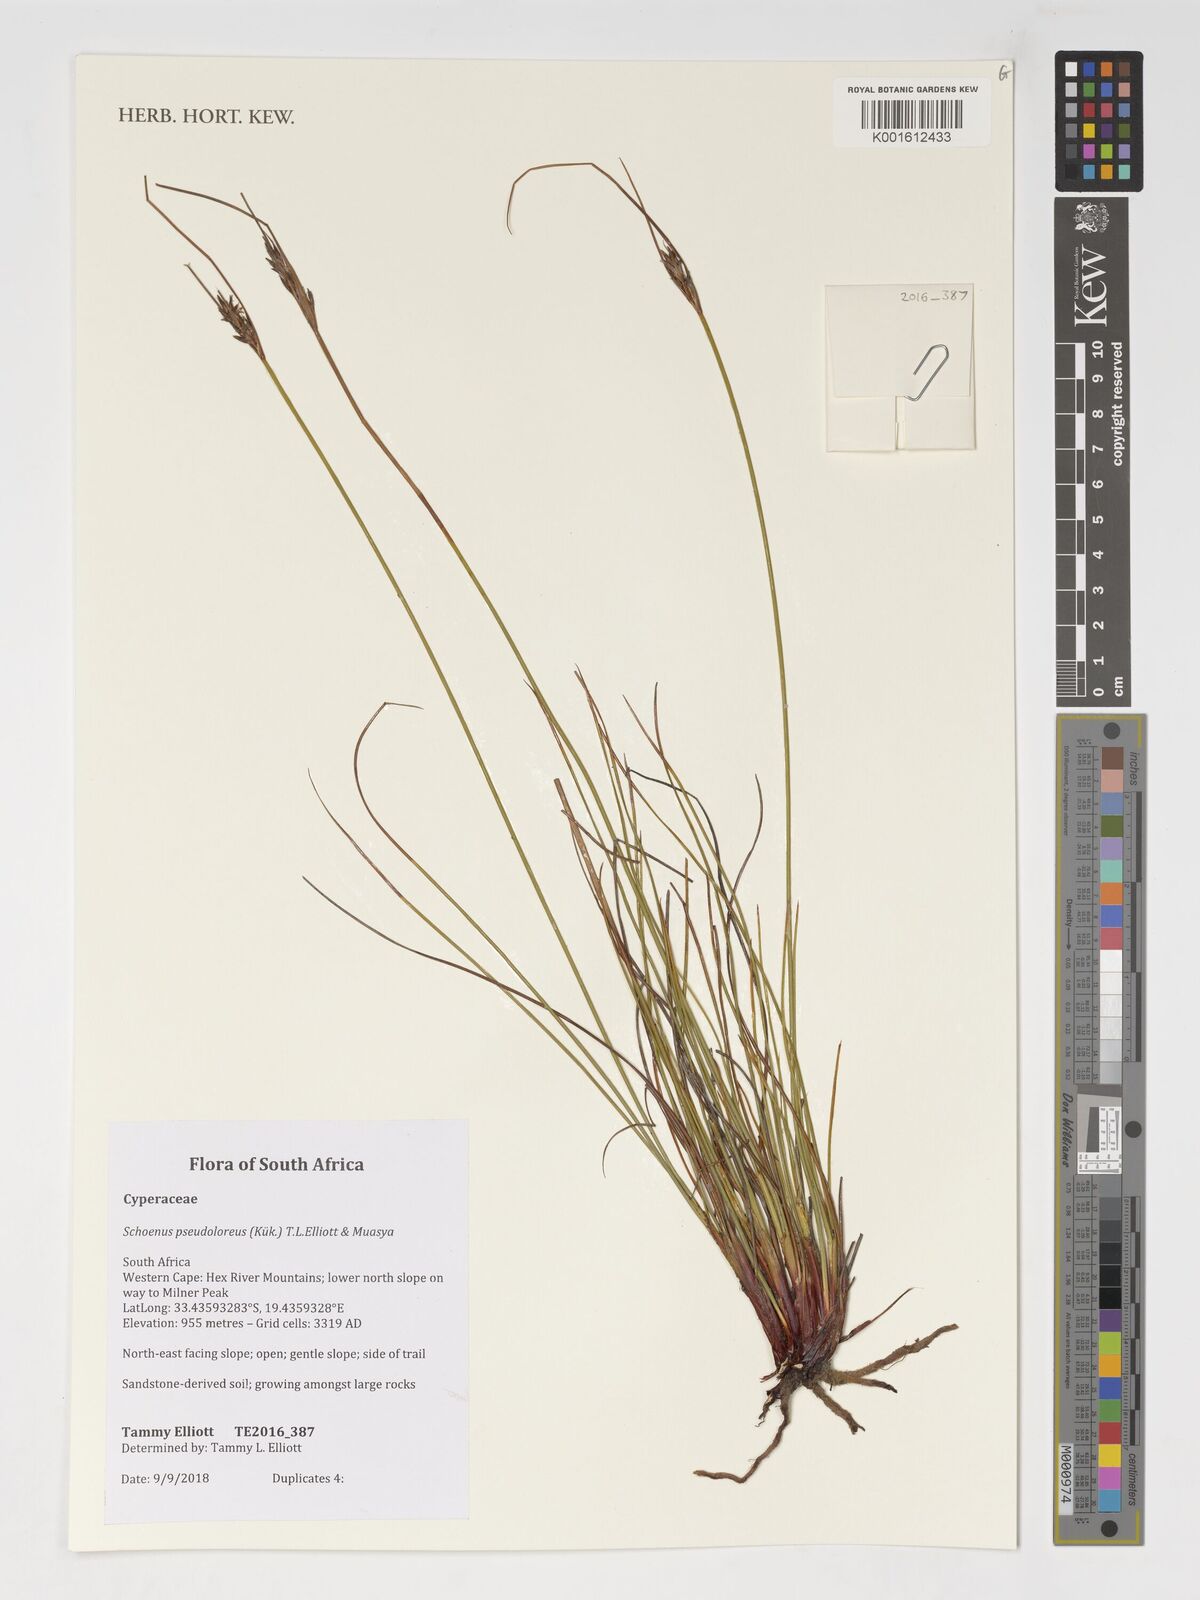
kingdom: Plantae
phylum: Tracheophyta
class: Liliopsida
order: Poales
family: Cyperaceae
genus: Schoenus
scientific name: Schoenus pseudoloreus
